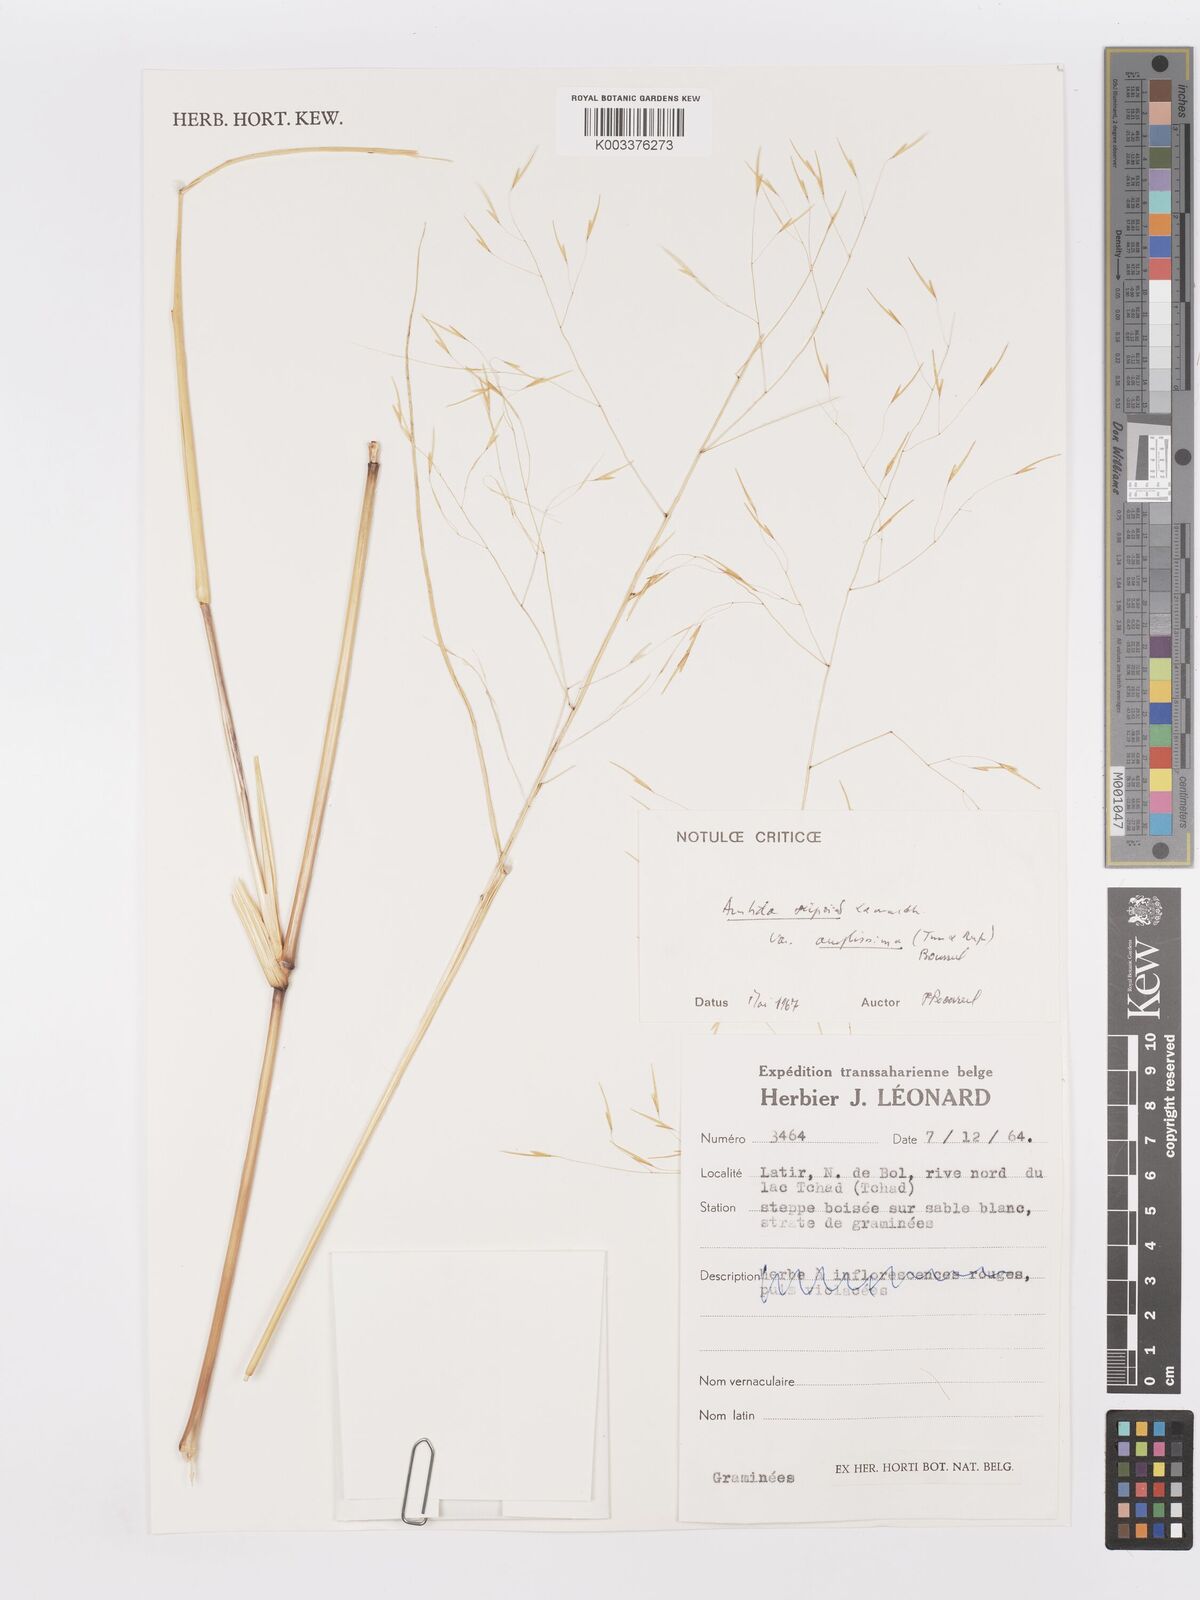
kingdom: Plantae
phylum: Tracheophyta
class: Liliopsida
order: Poales
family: Poaceae
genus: Aristida
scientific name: Aristida stipoides
